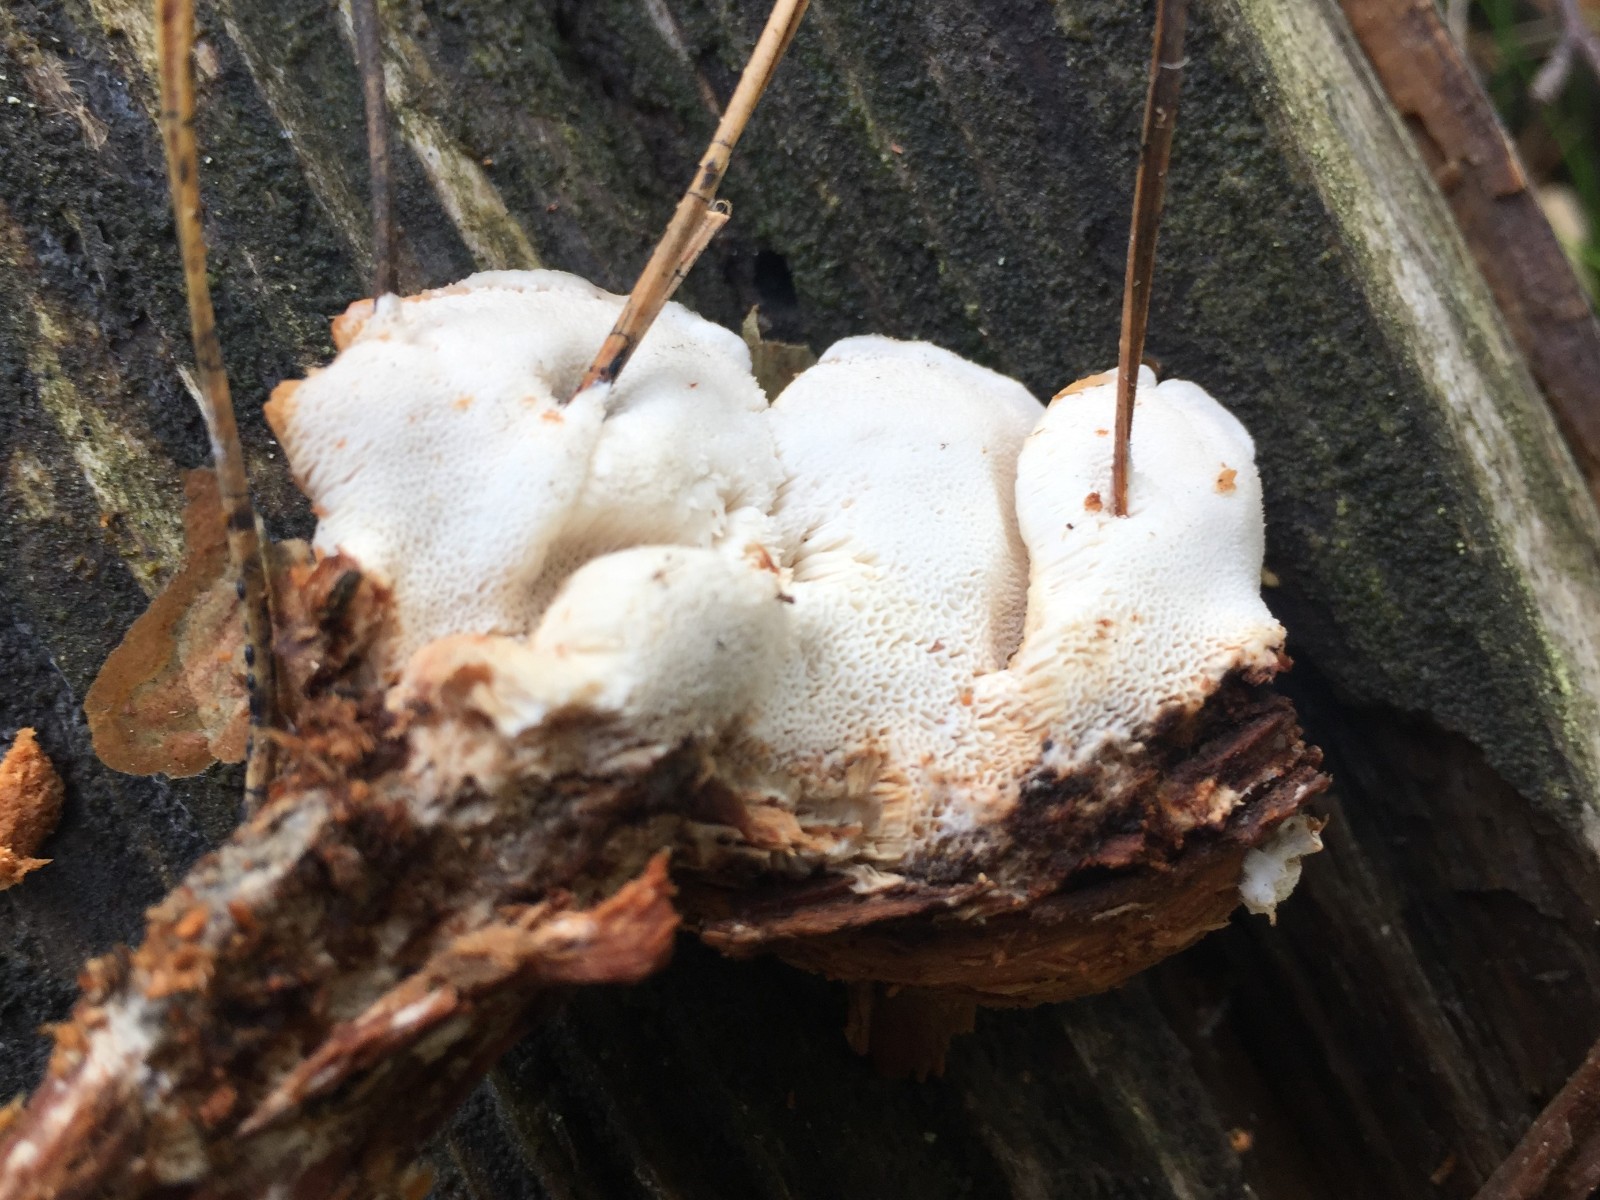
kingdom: Fungi
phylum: Basidiomycota
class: Agaricomycetes
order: Polyporales
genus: Fuscopostia
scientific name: Fuscopostia fragilis
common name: brunende kødporesvamp
